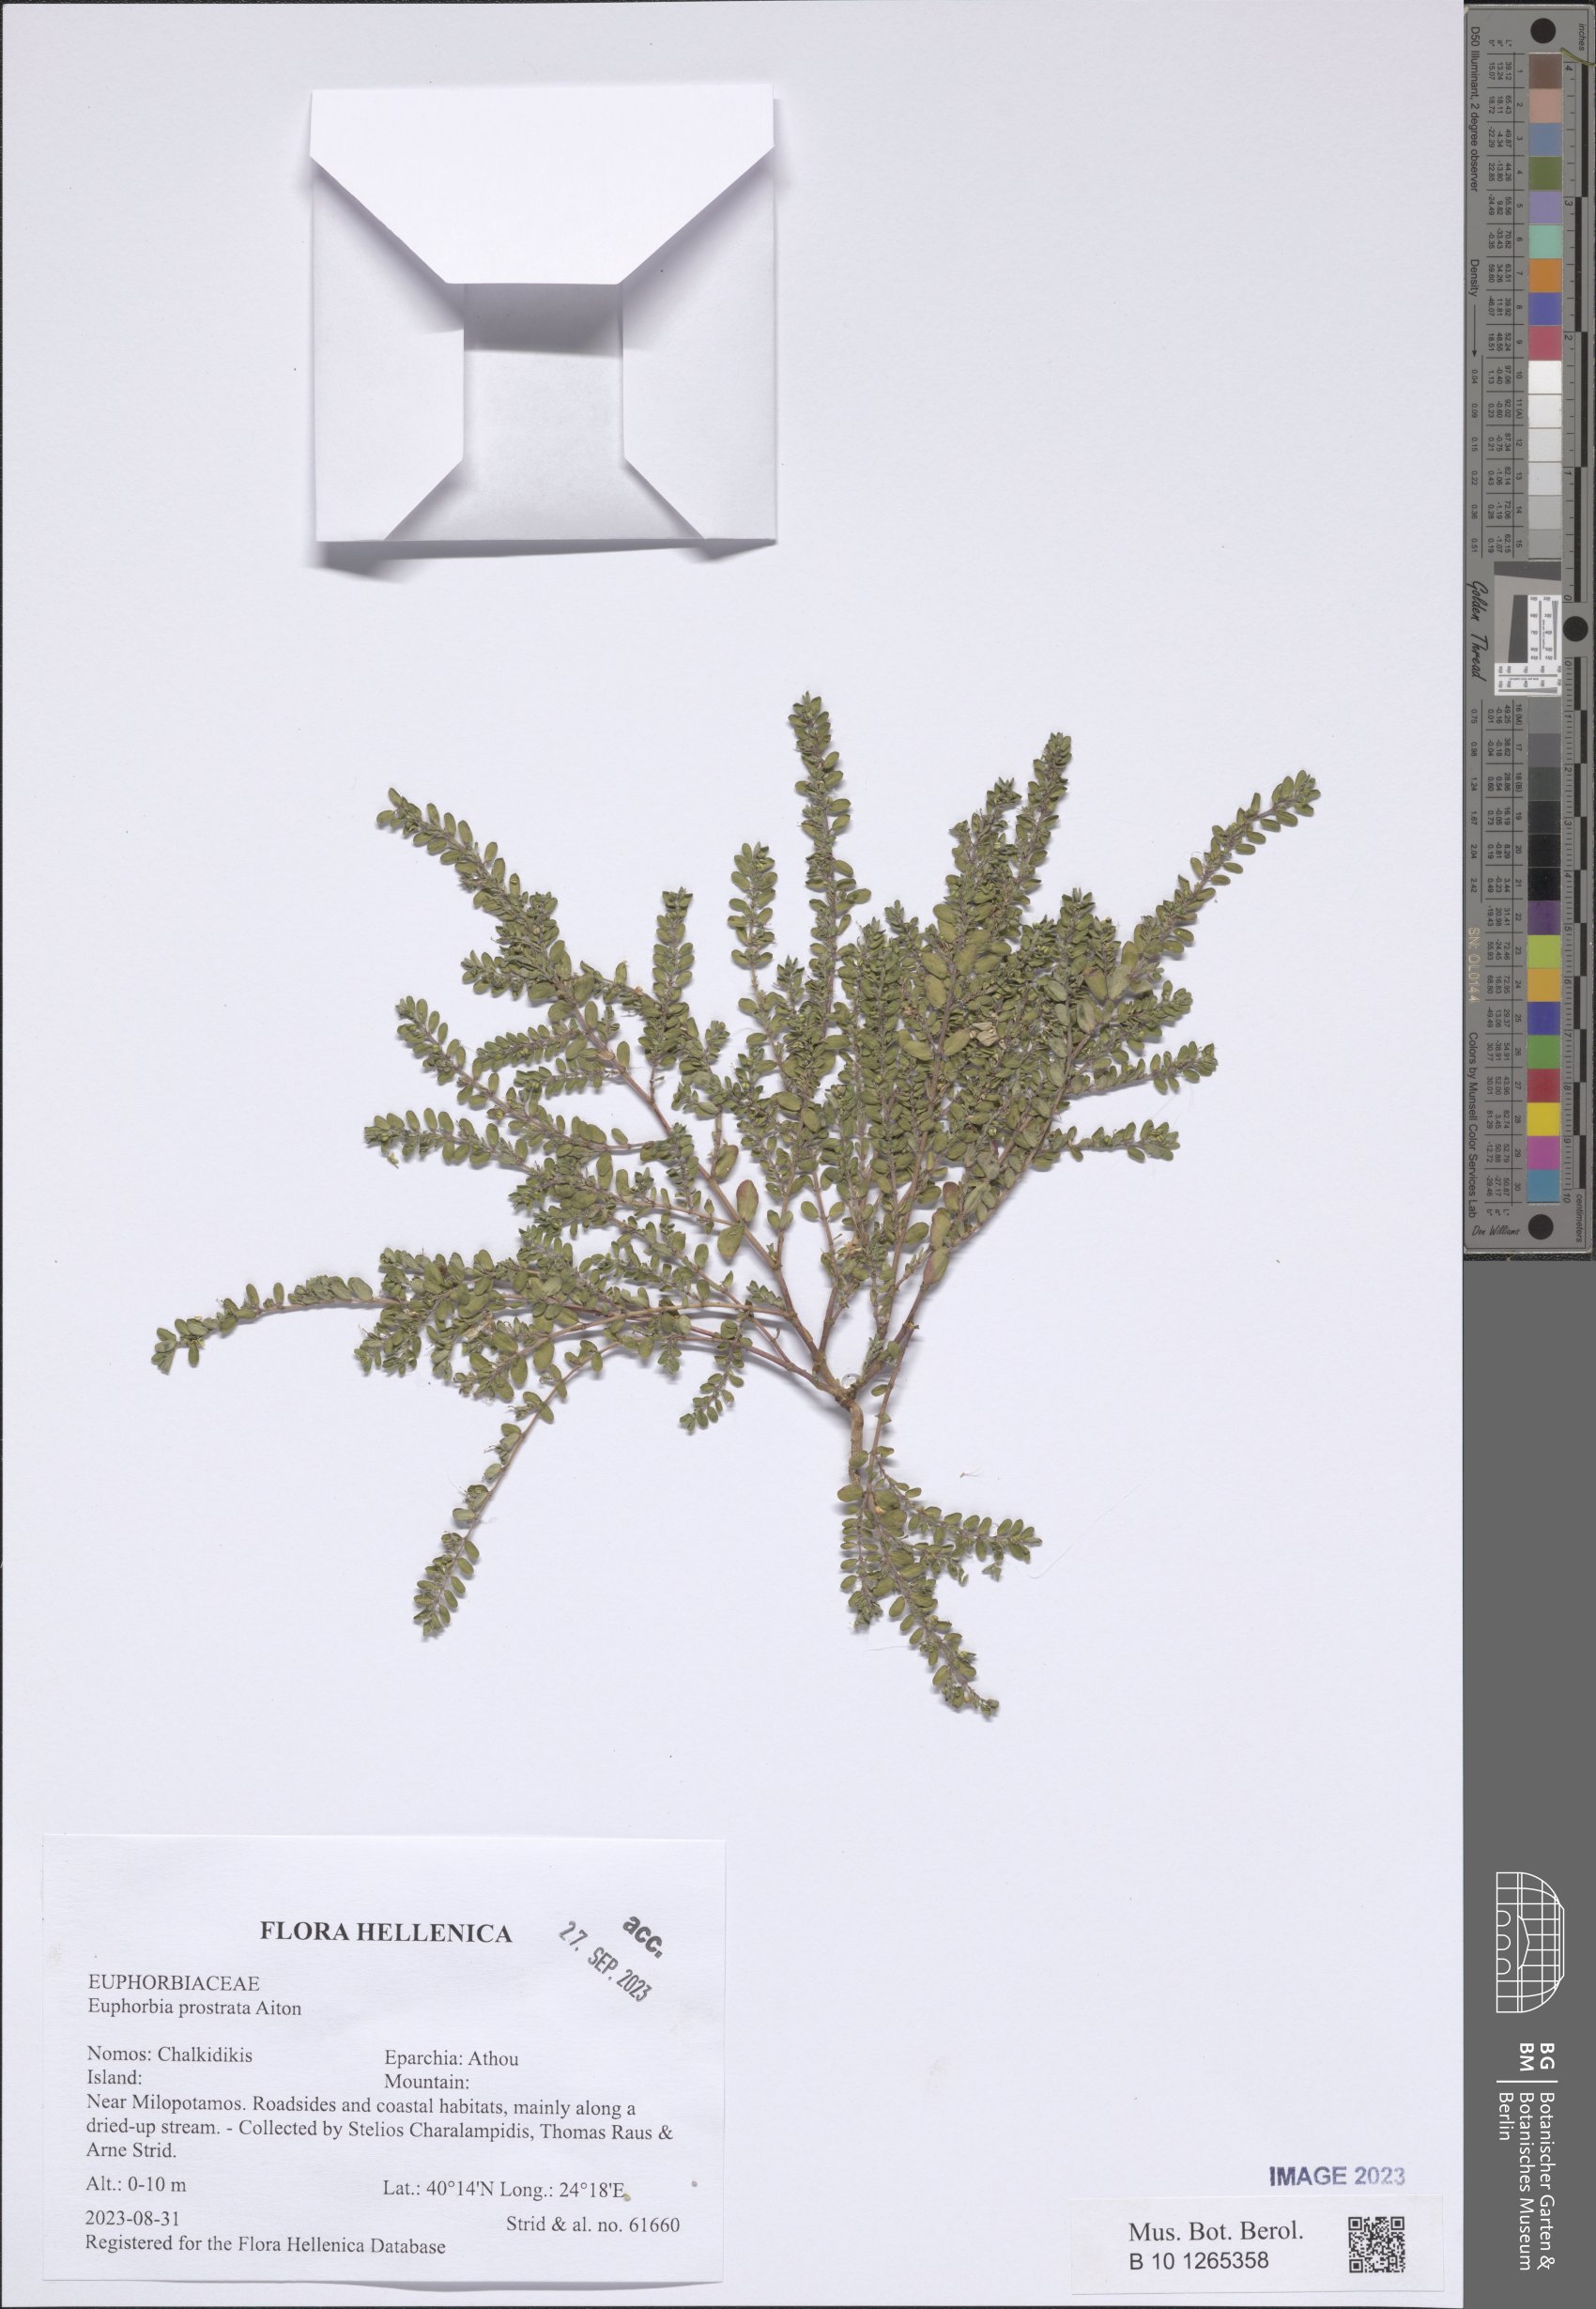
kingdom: Plantae
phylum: Tracheophyta
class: Magnoliopsida
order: Malpighiales
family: Euphorbiaceae
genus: Euphorbia
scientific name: Euphorbia prostrata
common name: Prostrate sandmat
